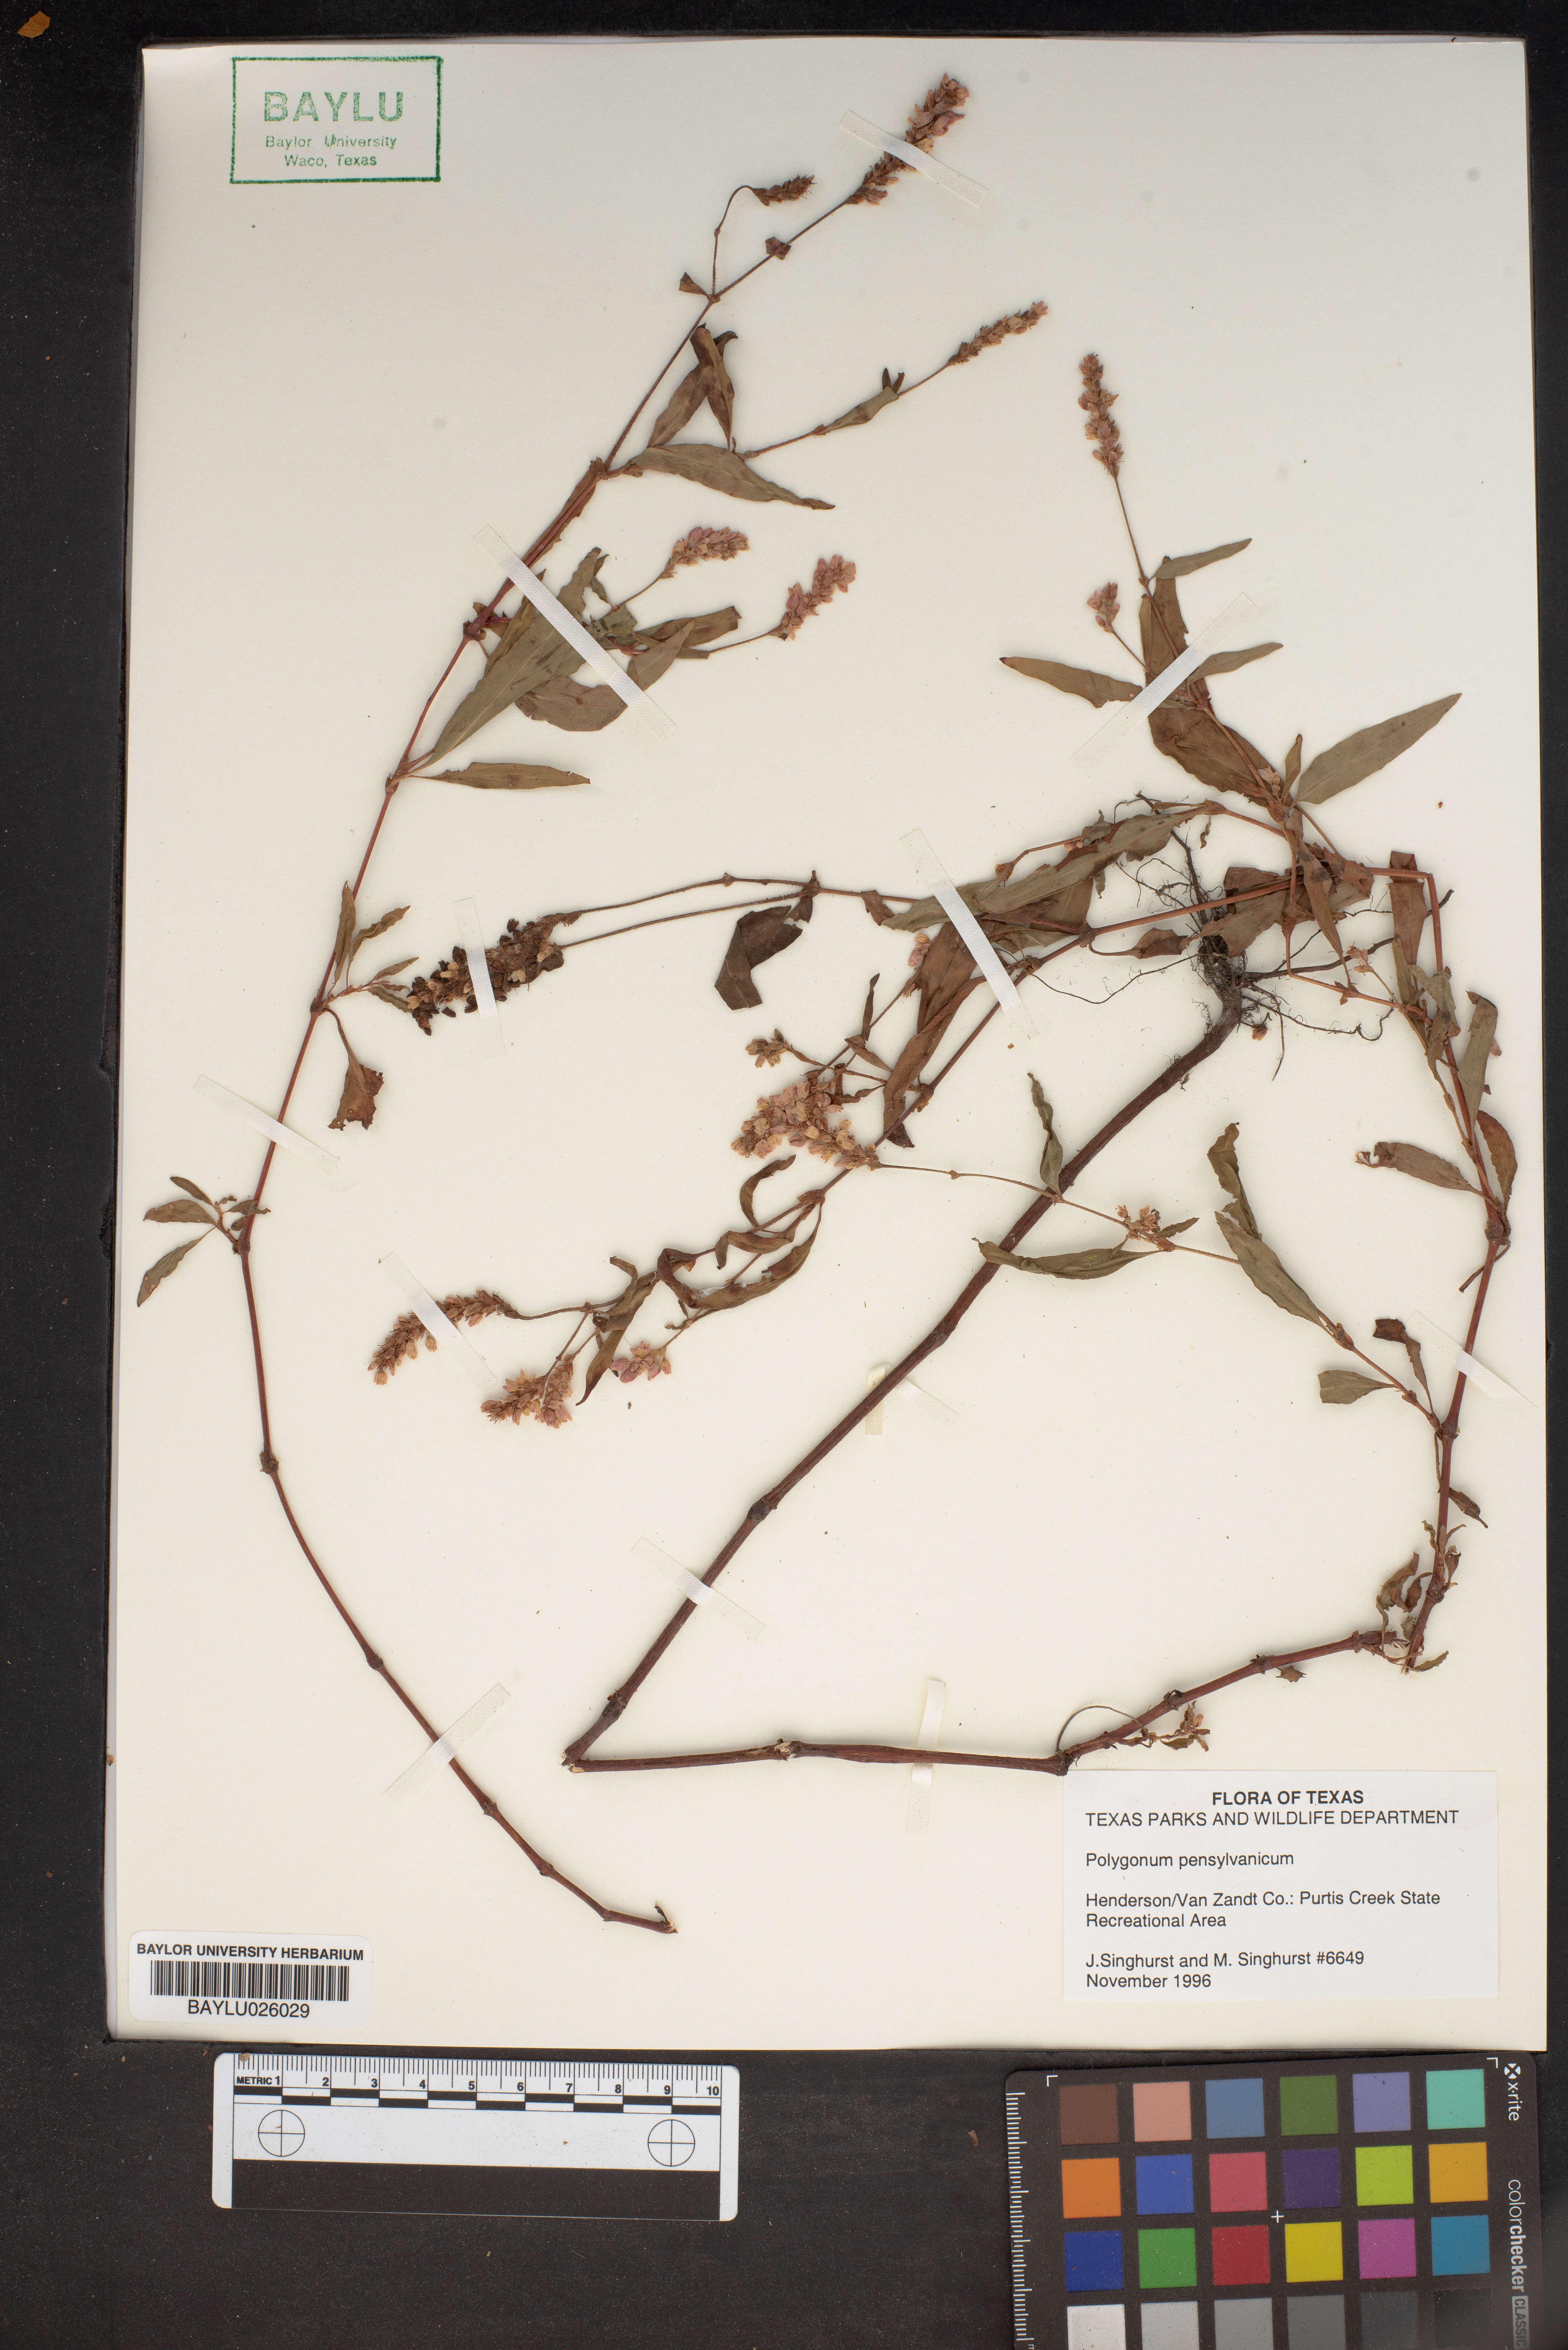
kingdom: Plantae
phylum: Tracheophyta
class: Magnoliopsida
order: Caryophyllales
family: Polygonaceae
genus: Persicaria
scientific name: Persicaria pensylvanica
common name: Pinkweed
